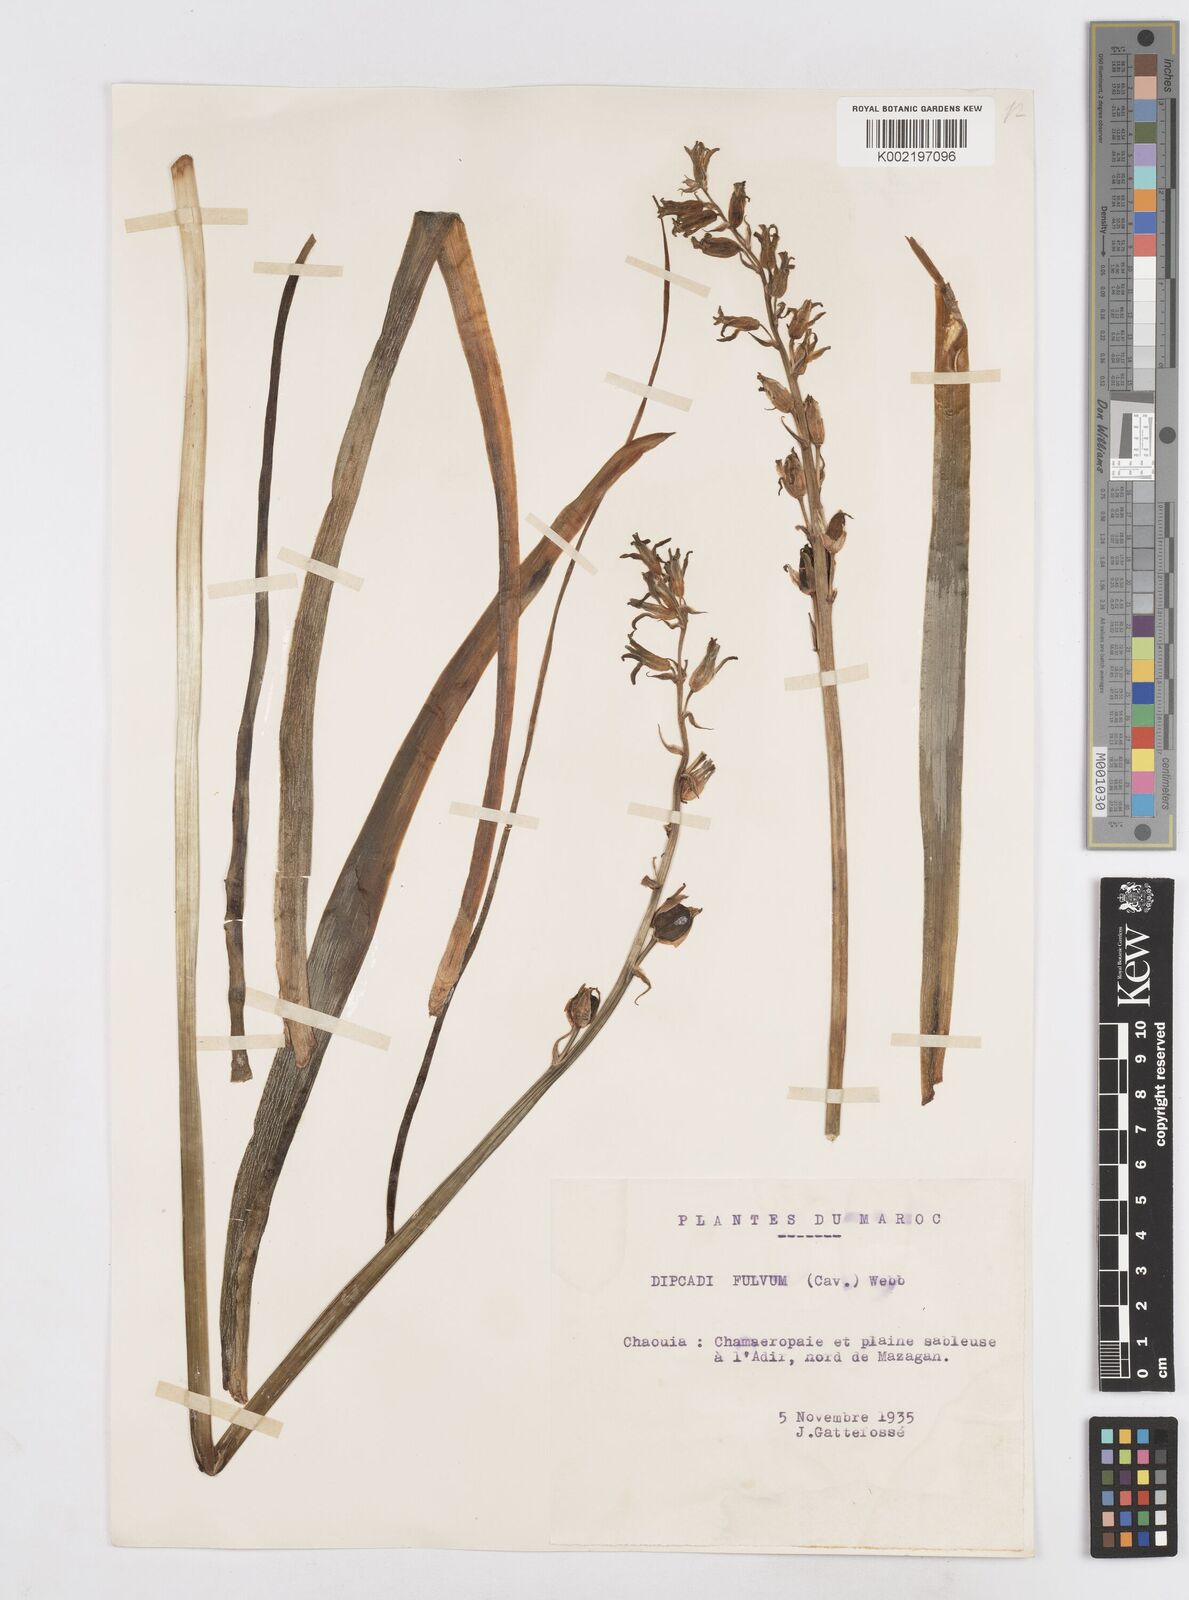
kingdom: Plantae
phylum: Tracheophyta
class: Liliopsida
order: Asparagales
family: Asparagaceae
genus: Dipcadi
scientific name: Dipcadi serotinum
